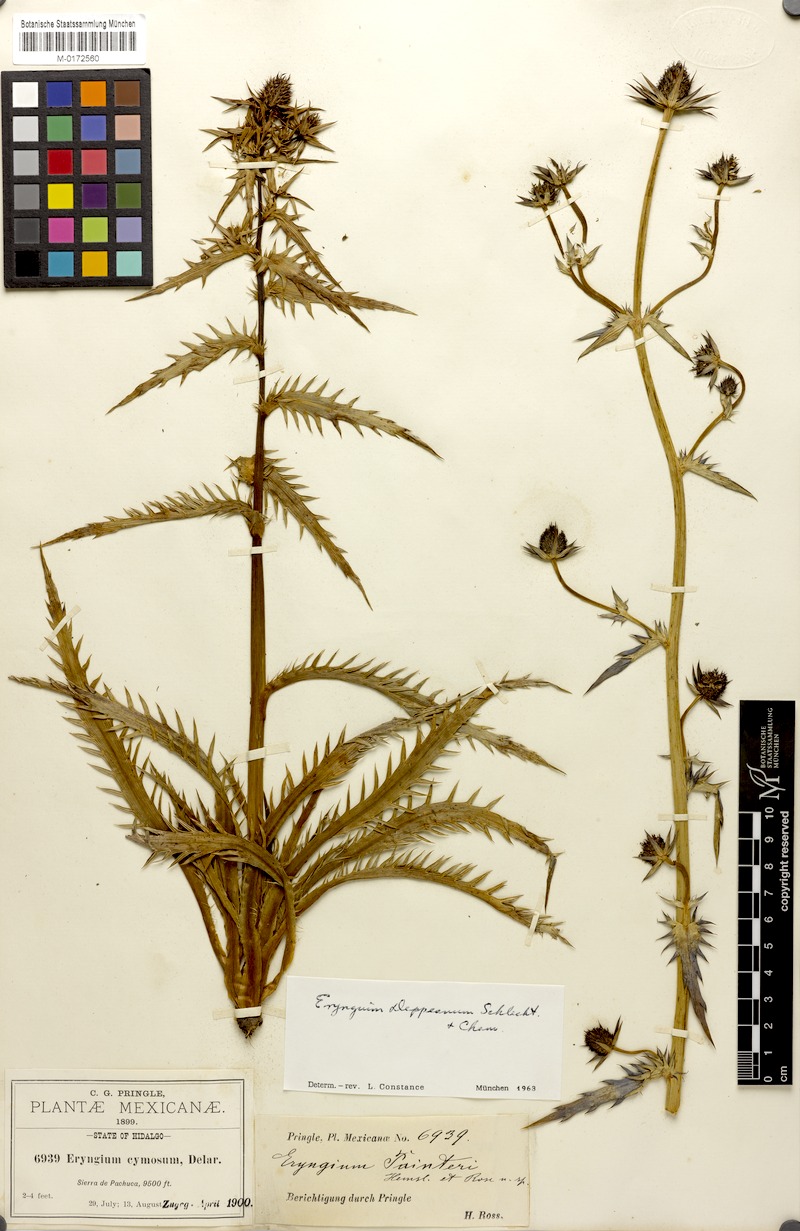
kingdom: Plantae
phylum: Tracheophyta
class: Magnoliopsida
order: Apiales
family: Apiaceae
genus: Eryngium
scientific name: Eryngium deppeanum
